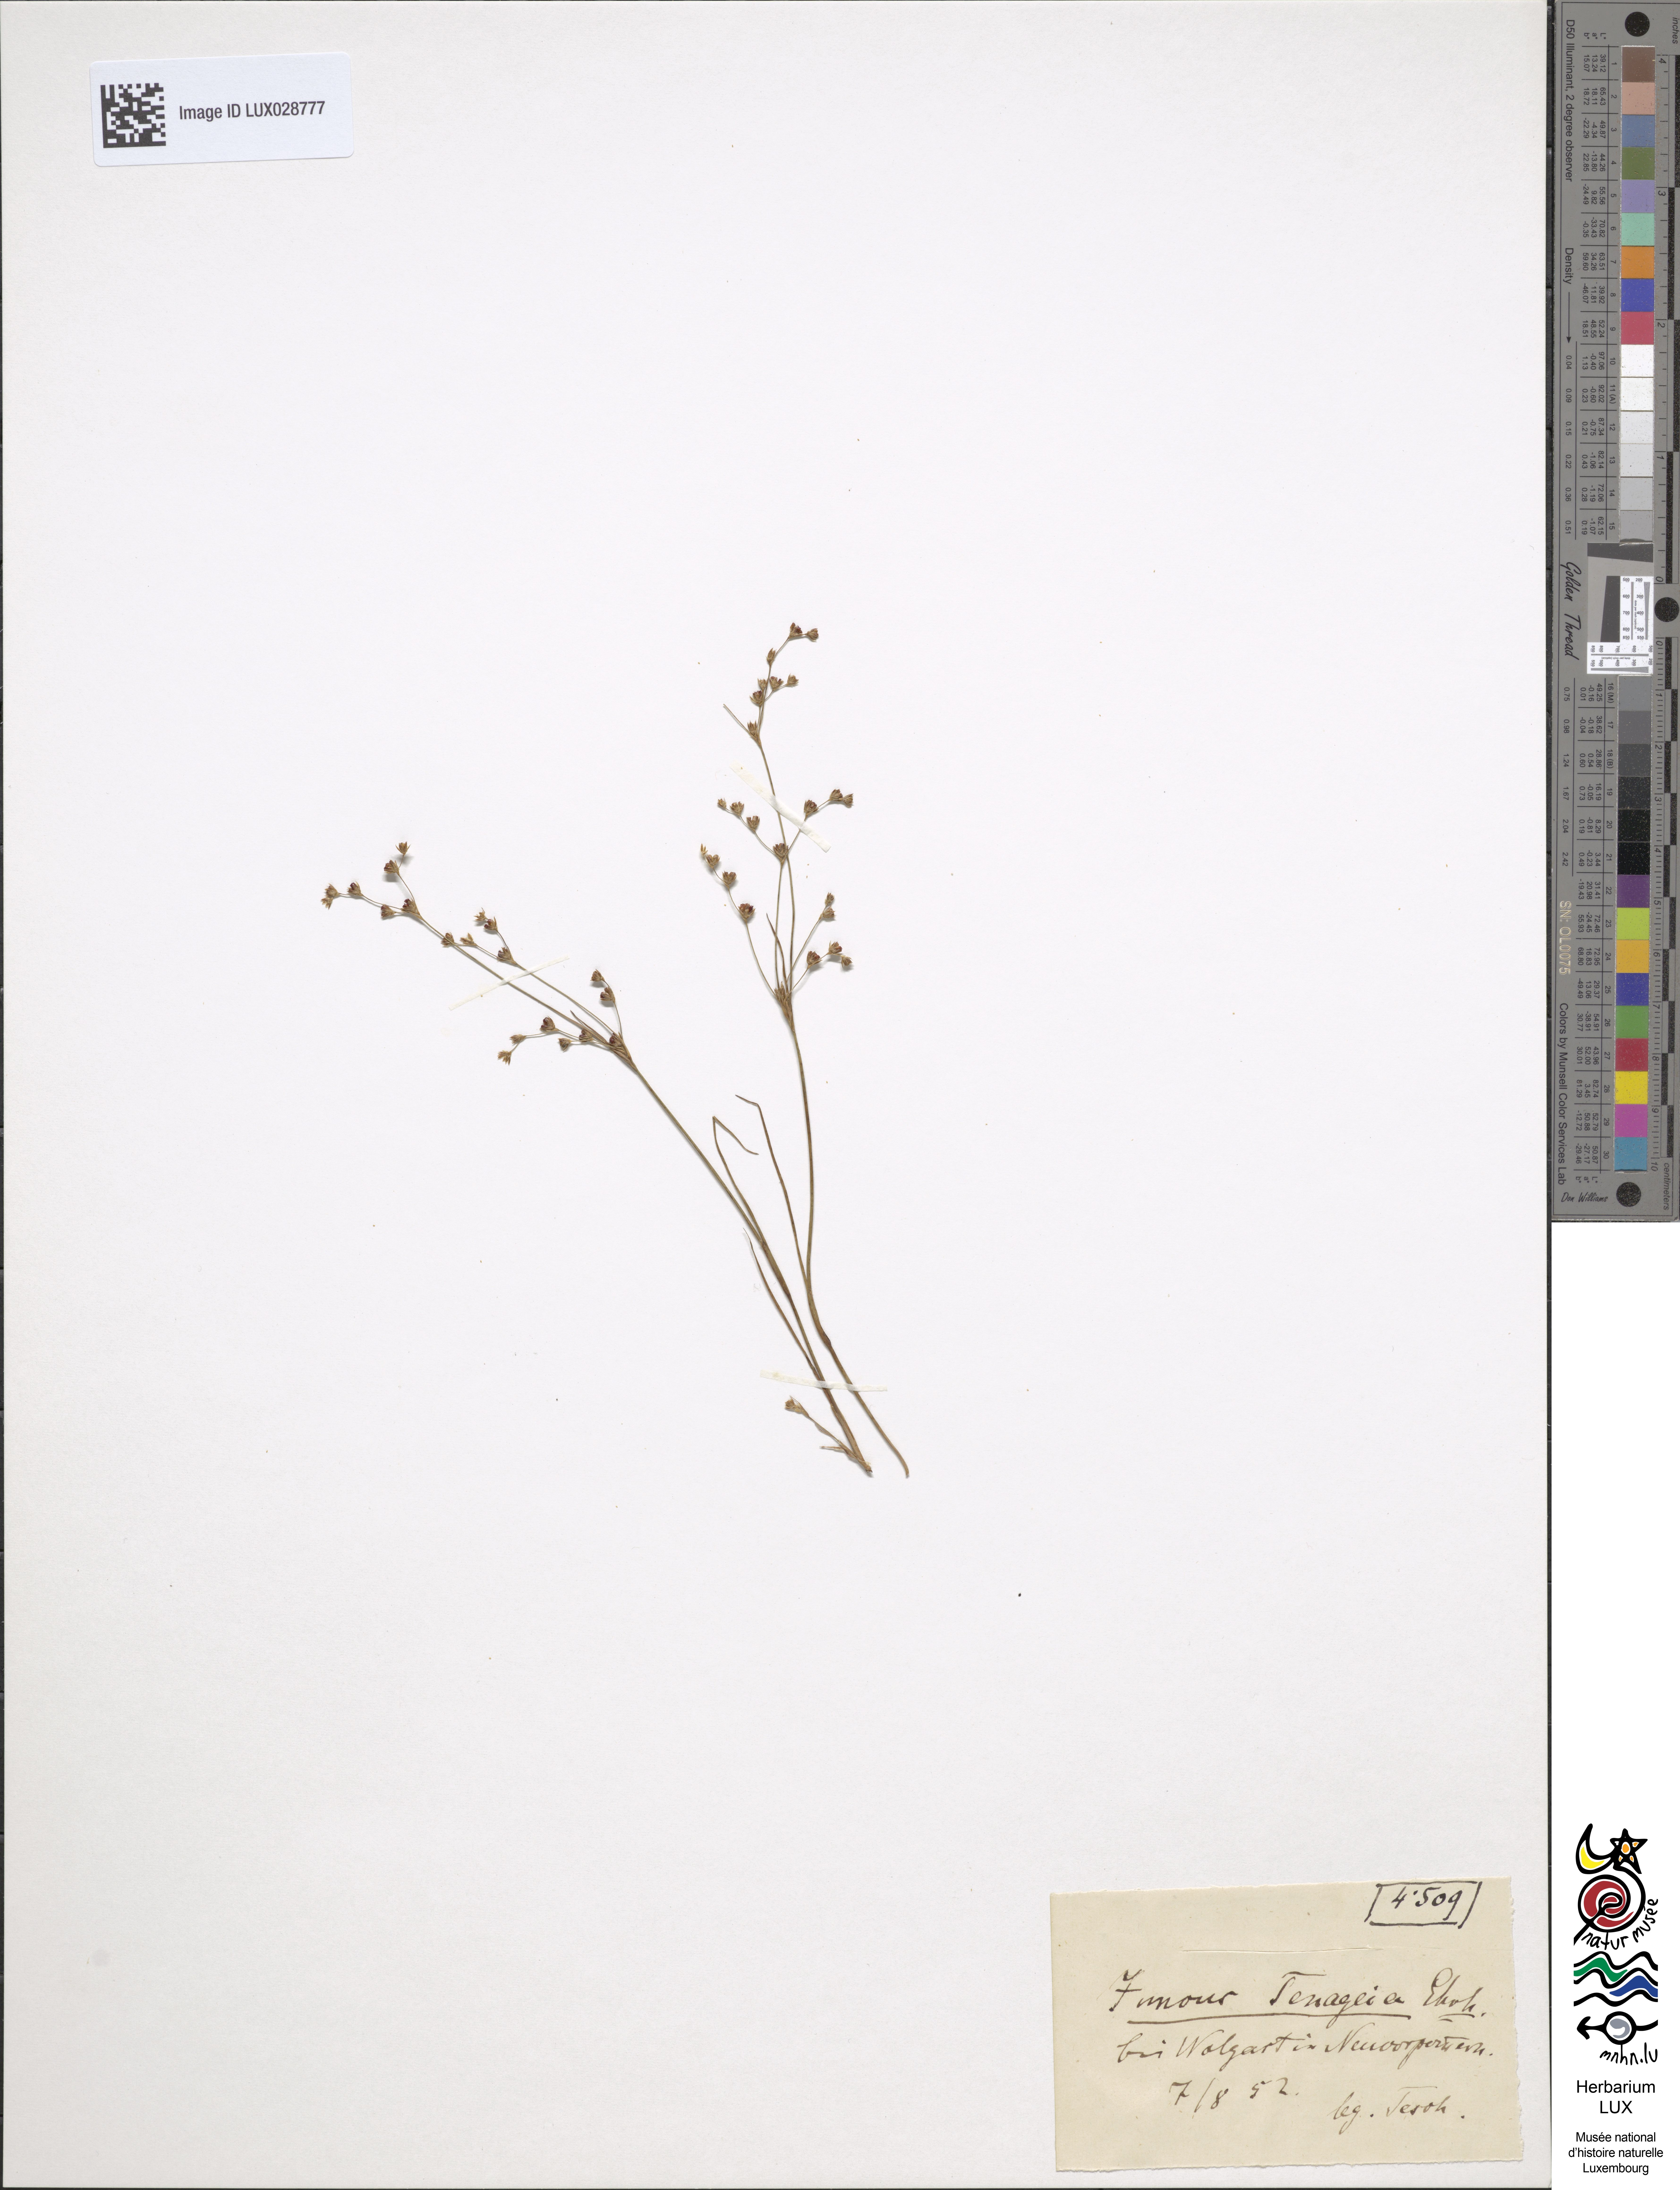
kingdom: Plantae
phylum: Tracheophyta
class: Liliopsida
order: Poales
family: Juncaceae
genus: Juncus
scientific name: Juncus tenageia
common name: Sand rush
